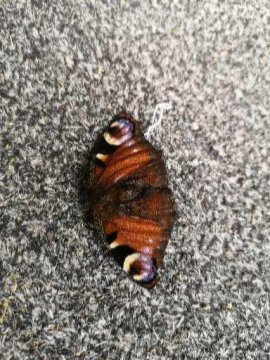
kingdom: Animalia
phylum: Arthropoda
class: Insecta
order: Lepidoptera
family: Nymphalidae
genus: Aglais
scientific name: Aglais io
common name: European Peacock
